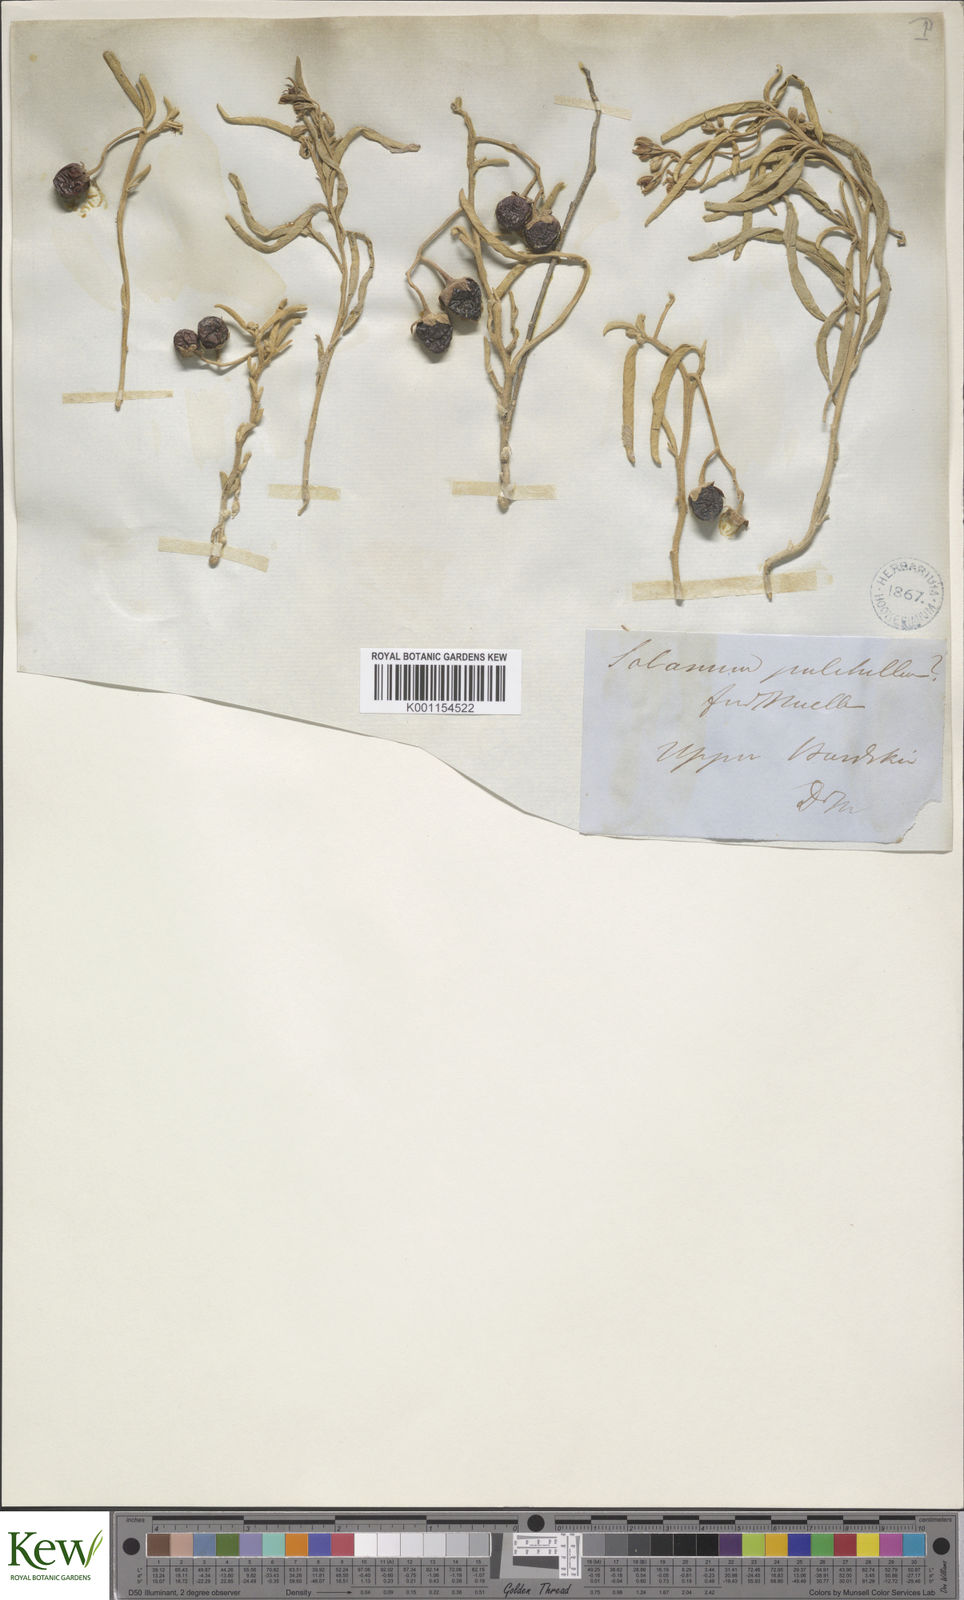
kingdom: Plantae
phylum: Tracheophyta
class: Magnoliopsida
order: Solanales
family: Solanaceae
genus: Solanum
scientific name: Solanum esuriale
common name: Wild tomato
